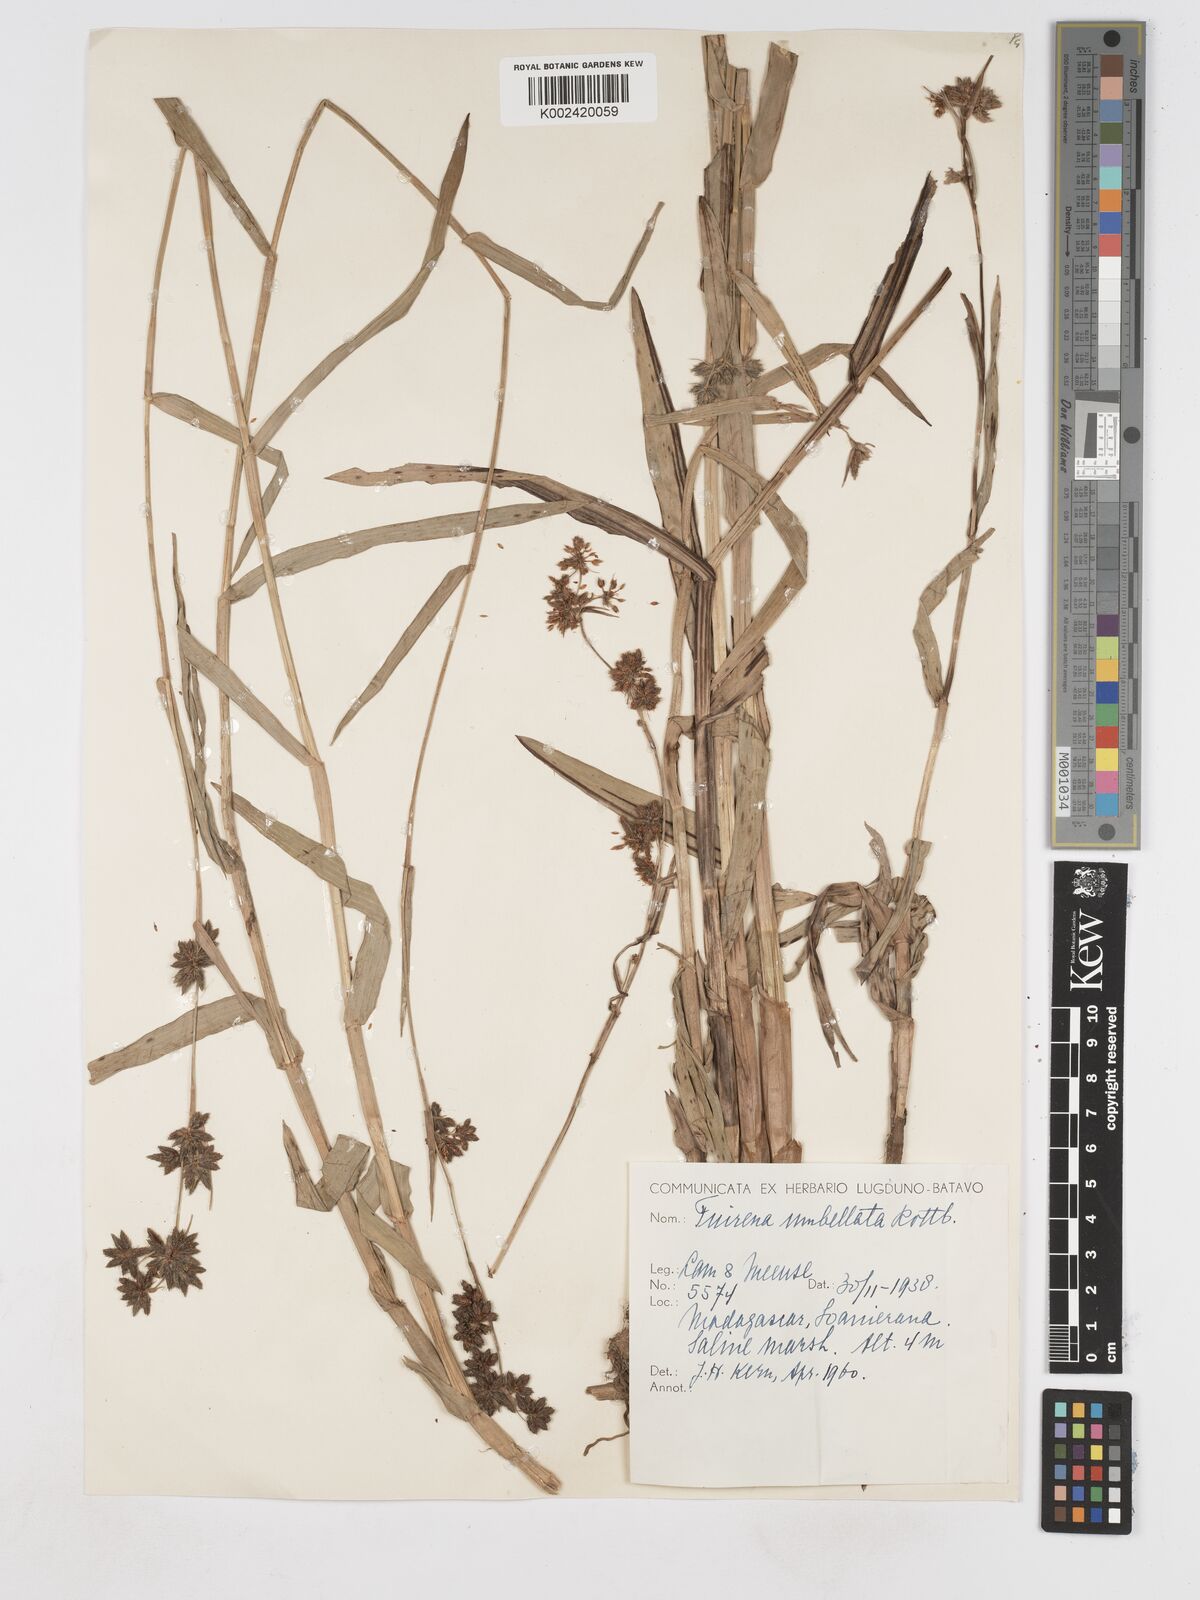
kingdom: Plantae
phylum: Tracheophyta
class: Liliopsida
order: Poales
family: Cyperaceae
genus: Fuirena
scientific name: Fuirena umbellata
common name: Yefen
